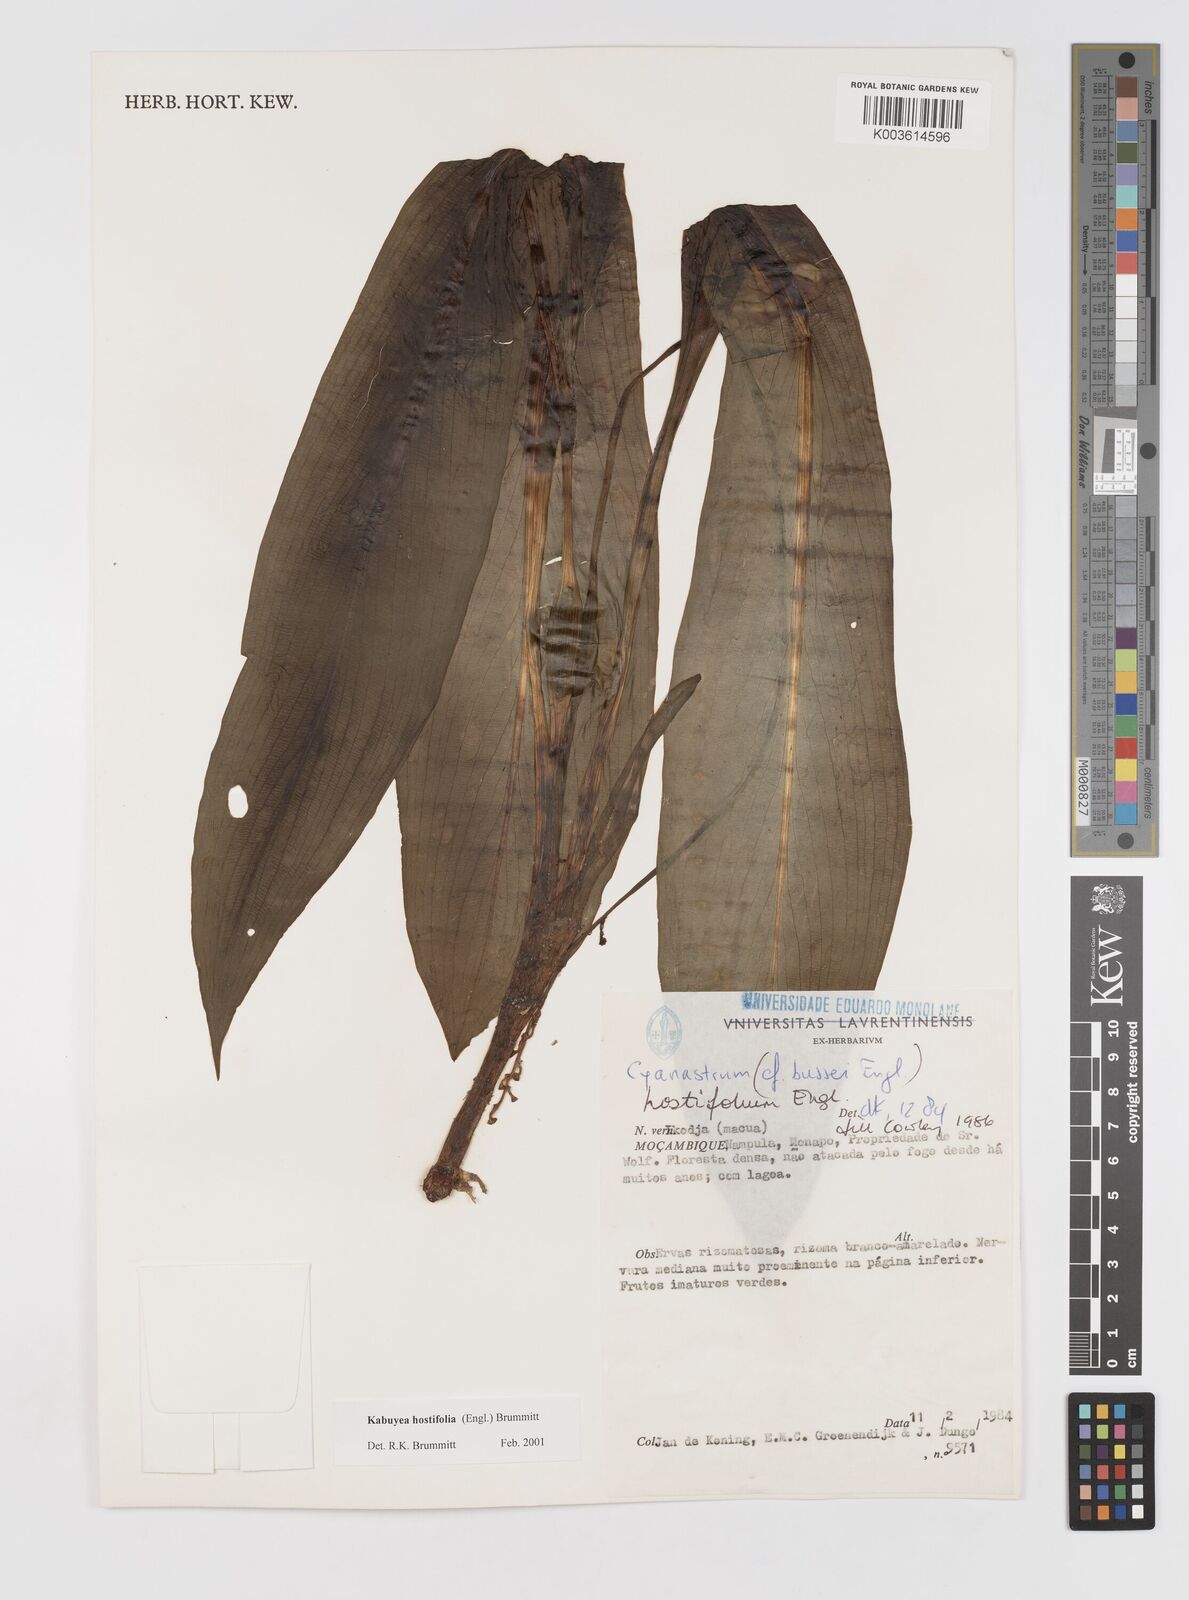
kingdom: Plantae
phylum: Tracheophyta
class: Liliopsida
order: Asparagales
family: Tecophilaeaceae
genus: Kabuyea
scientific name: Kabuyea hostifolia
